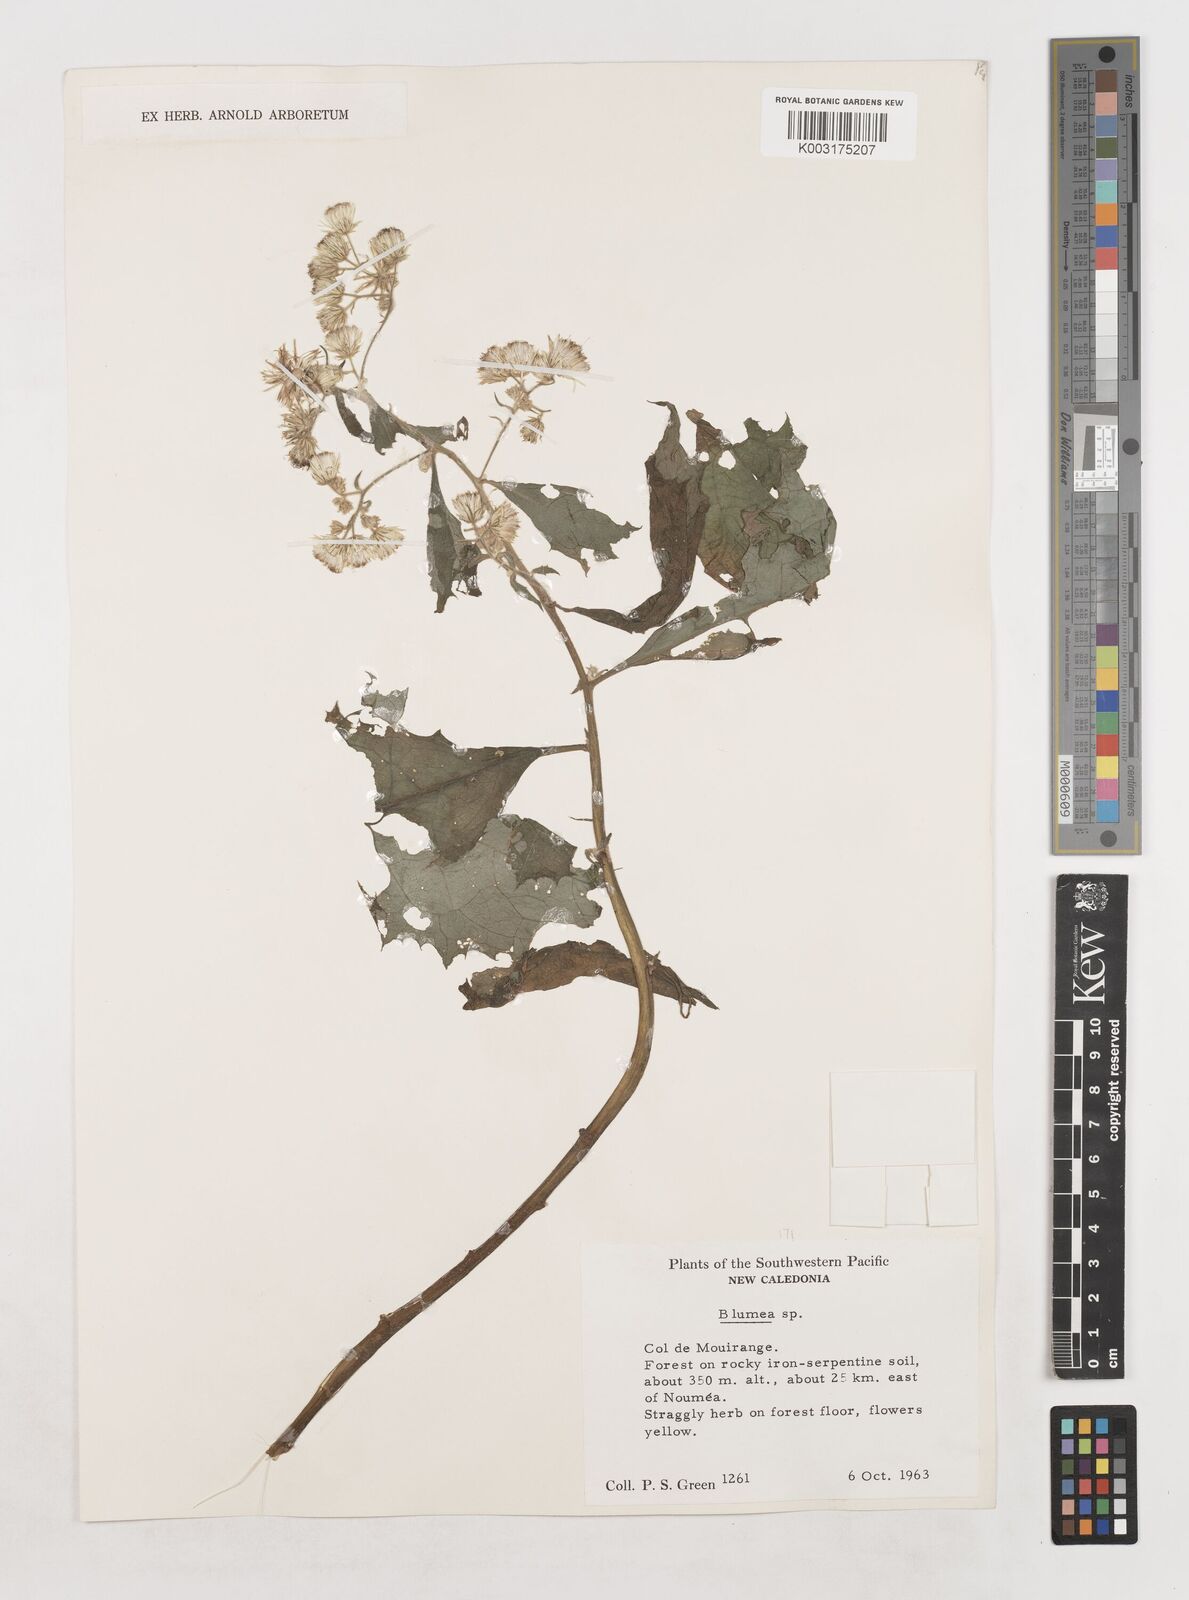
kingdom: Plantae
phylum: Tracheophyta
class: Magnoliopsida
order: Asterales
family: Asteraceae
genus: Blumea
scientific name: Blumea
